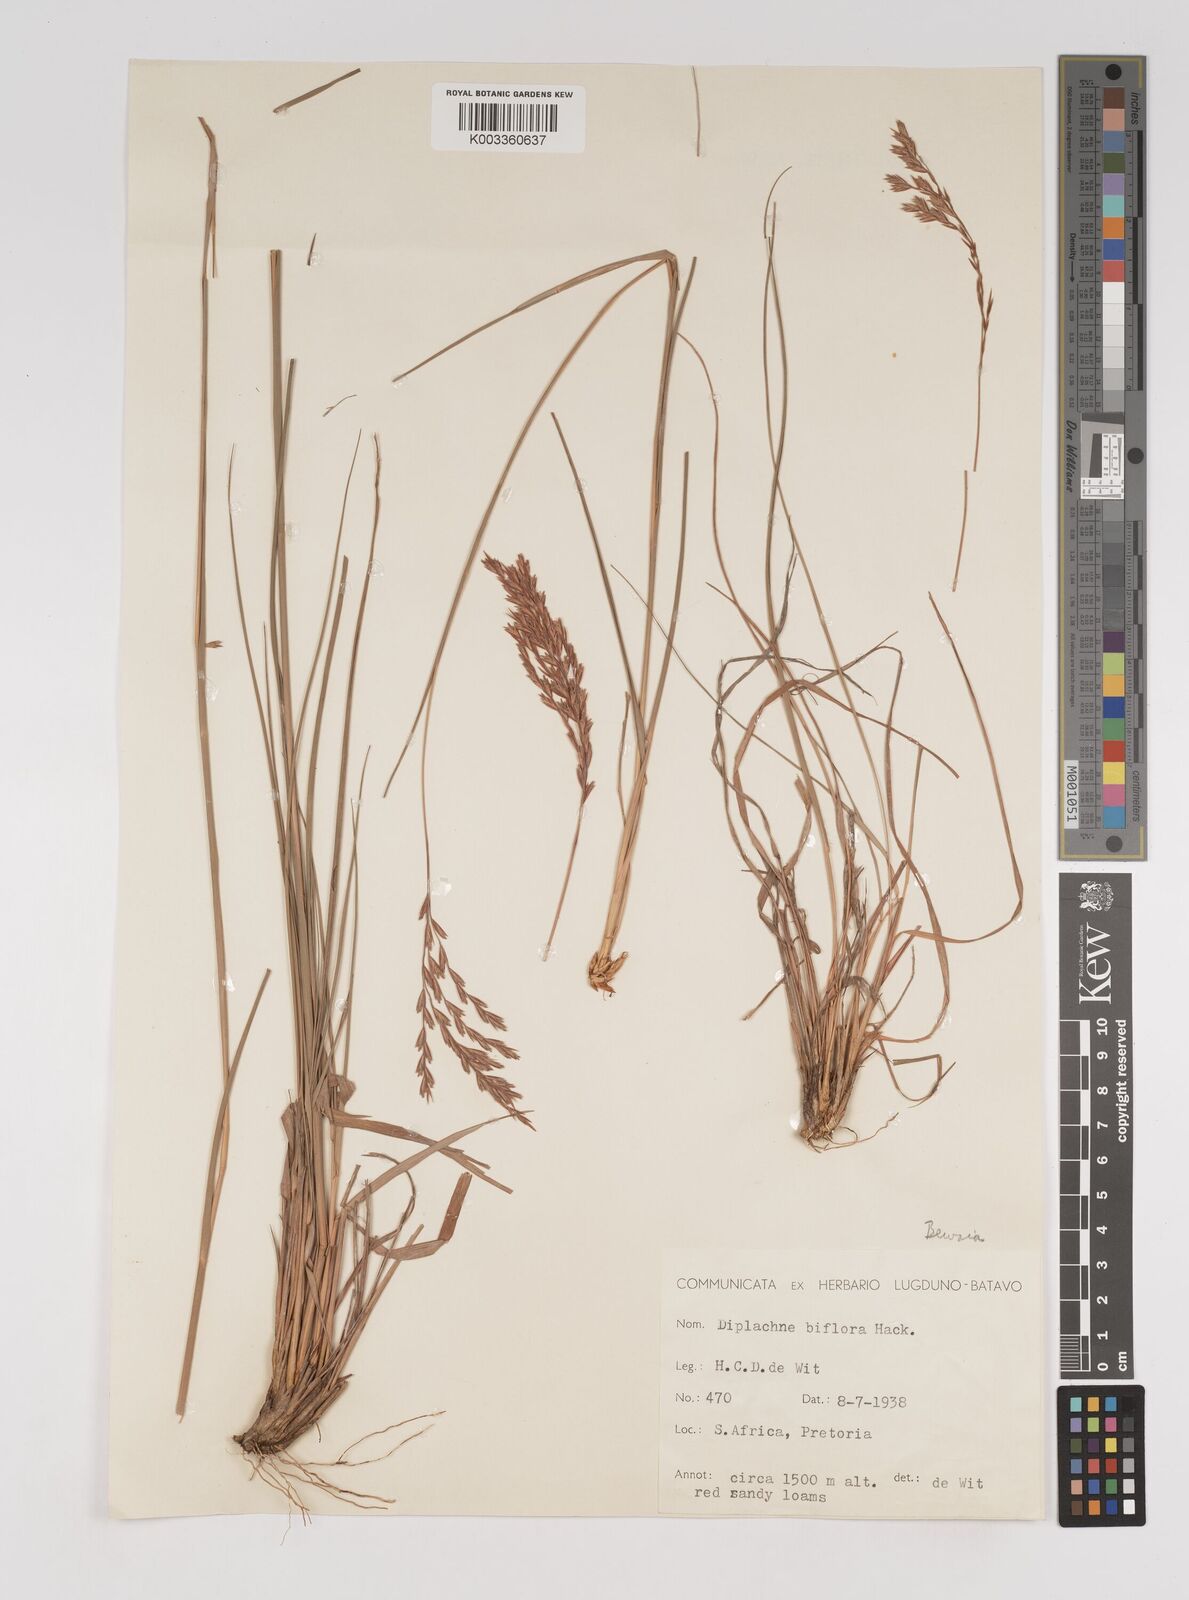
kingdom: Plantae
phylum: Tracheophyta
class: Liliopsida
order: Poales
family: Poaceae
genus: Bewsia
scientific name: Bewsia biflora
